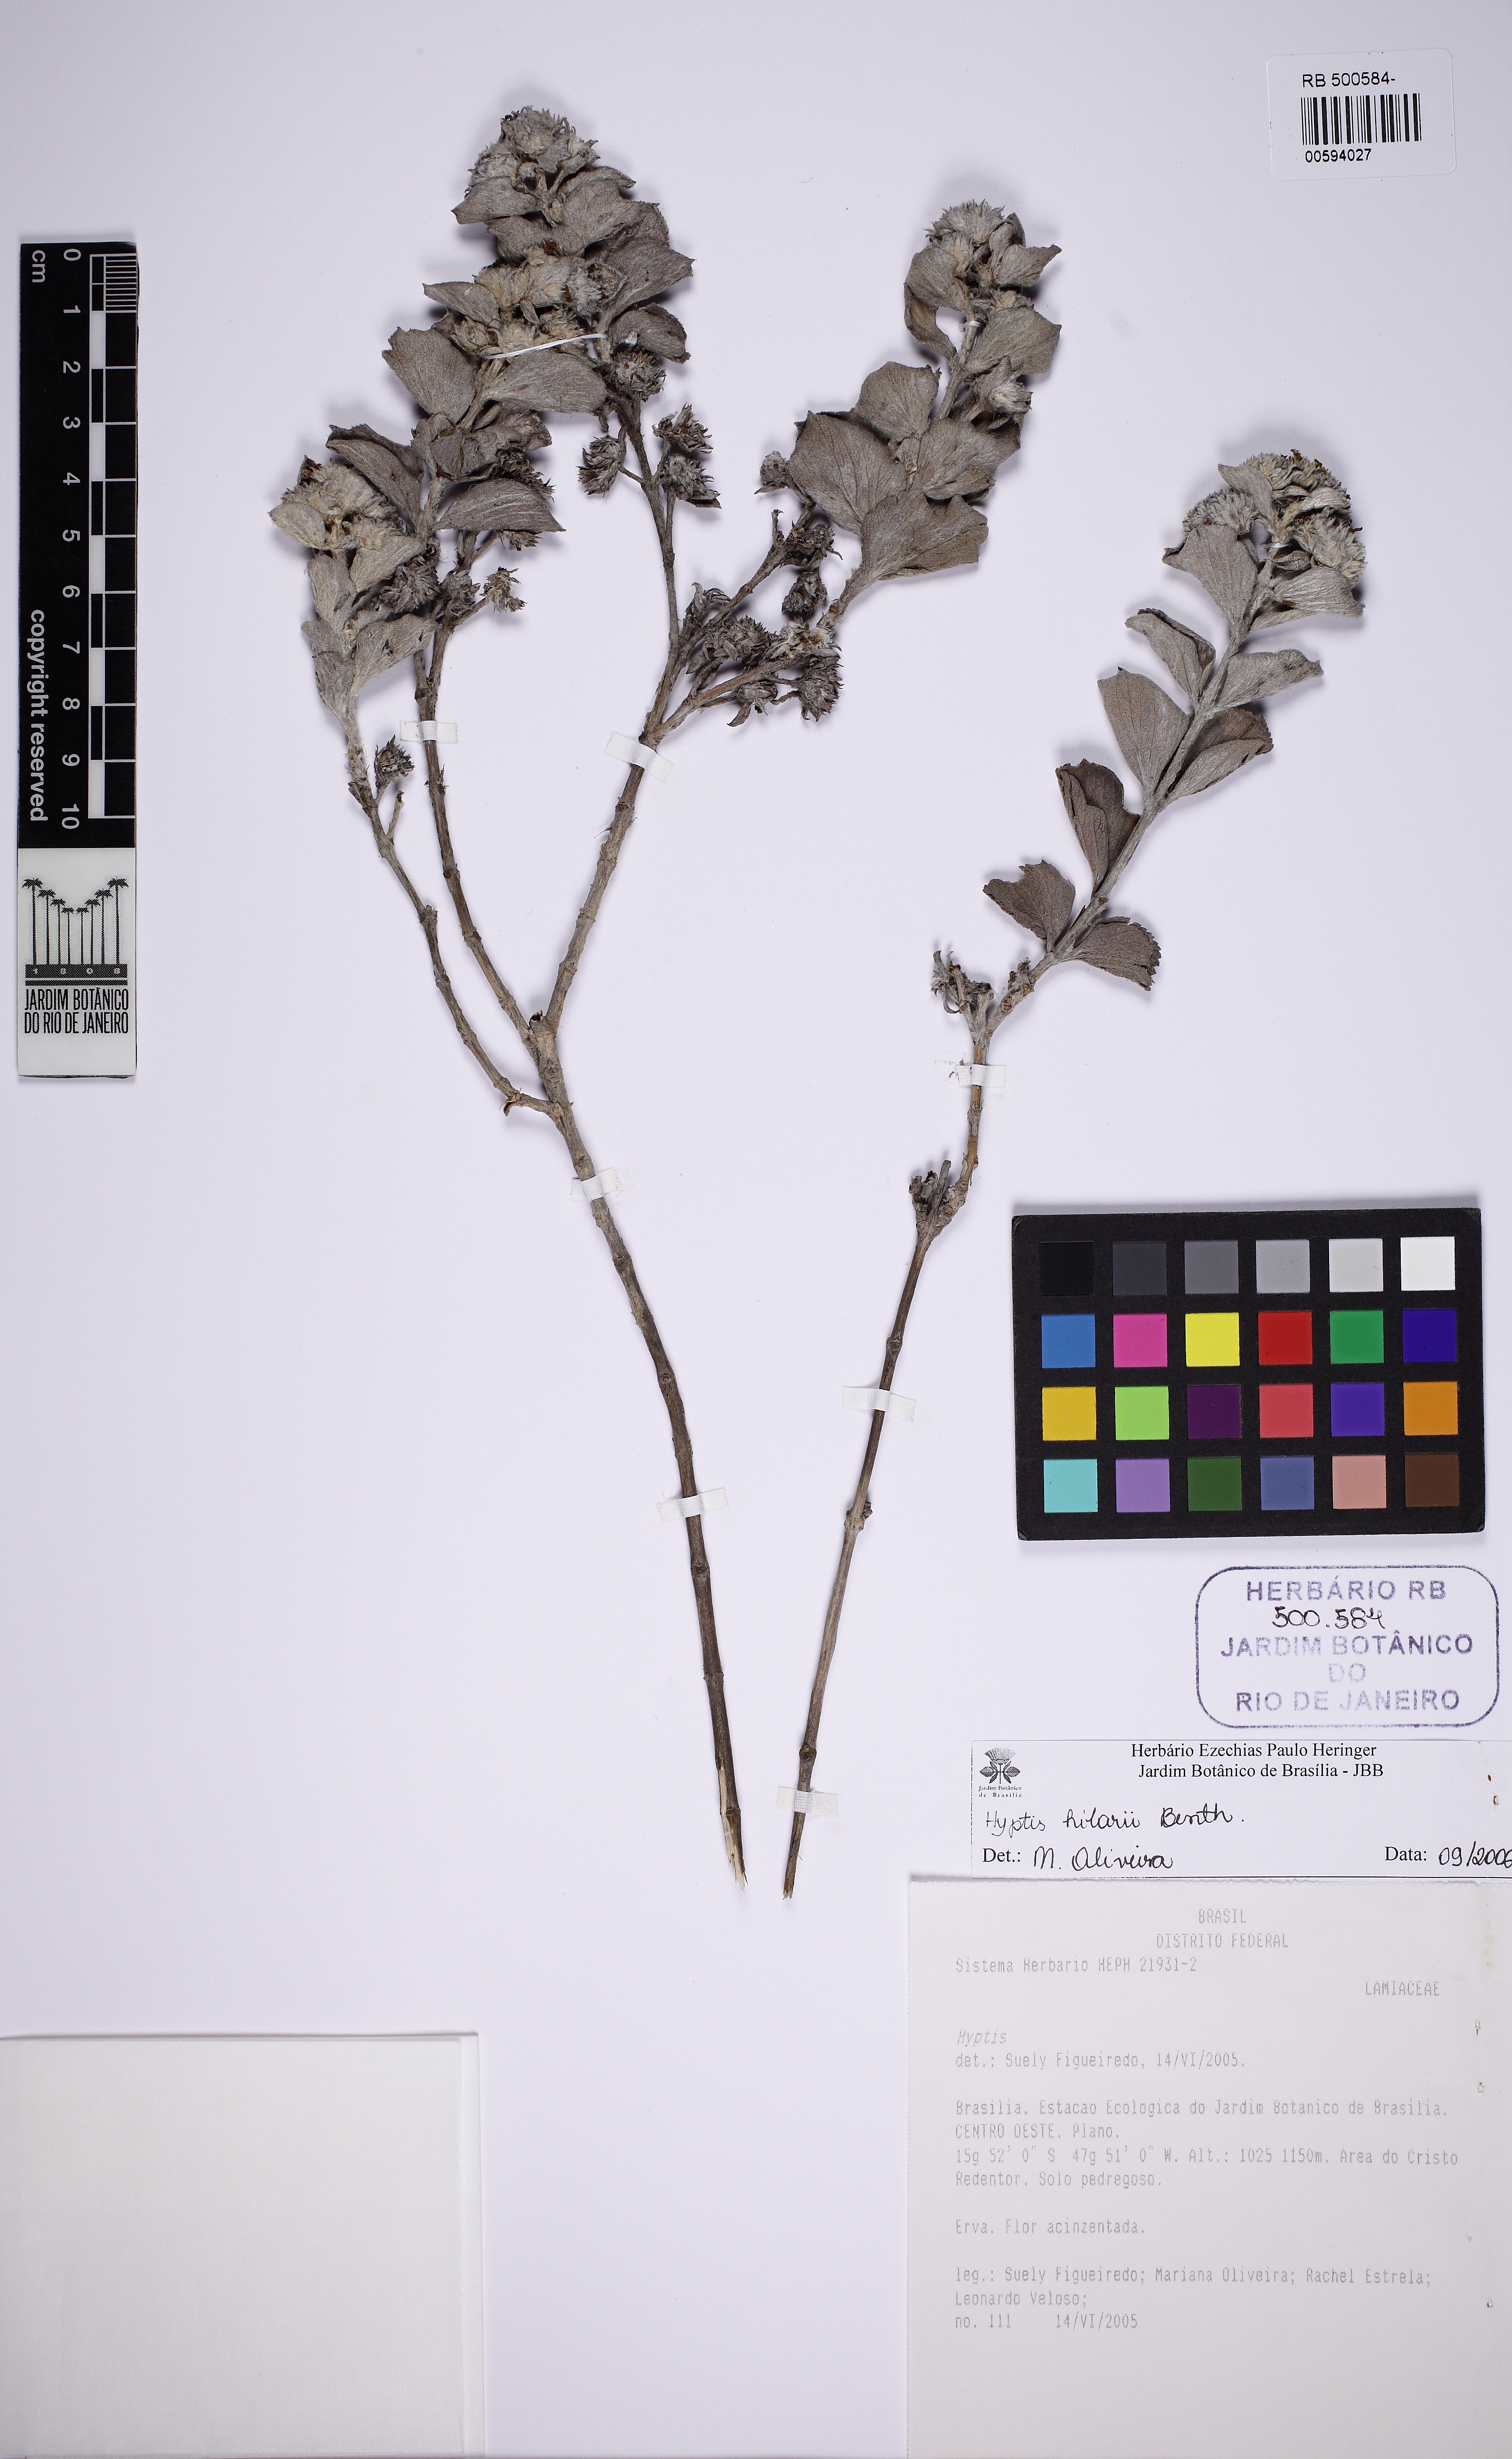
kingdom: Plantae
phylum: Tracheophyta
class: Magnoliopsida
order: Lamiales
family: Lamiaceae
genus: Hyptis
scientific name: Hyptis hilarii
